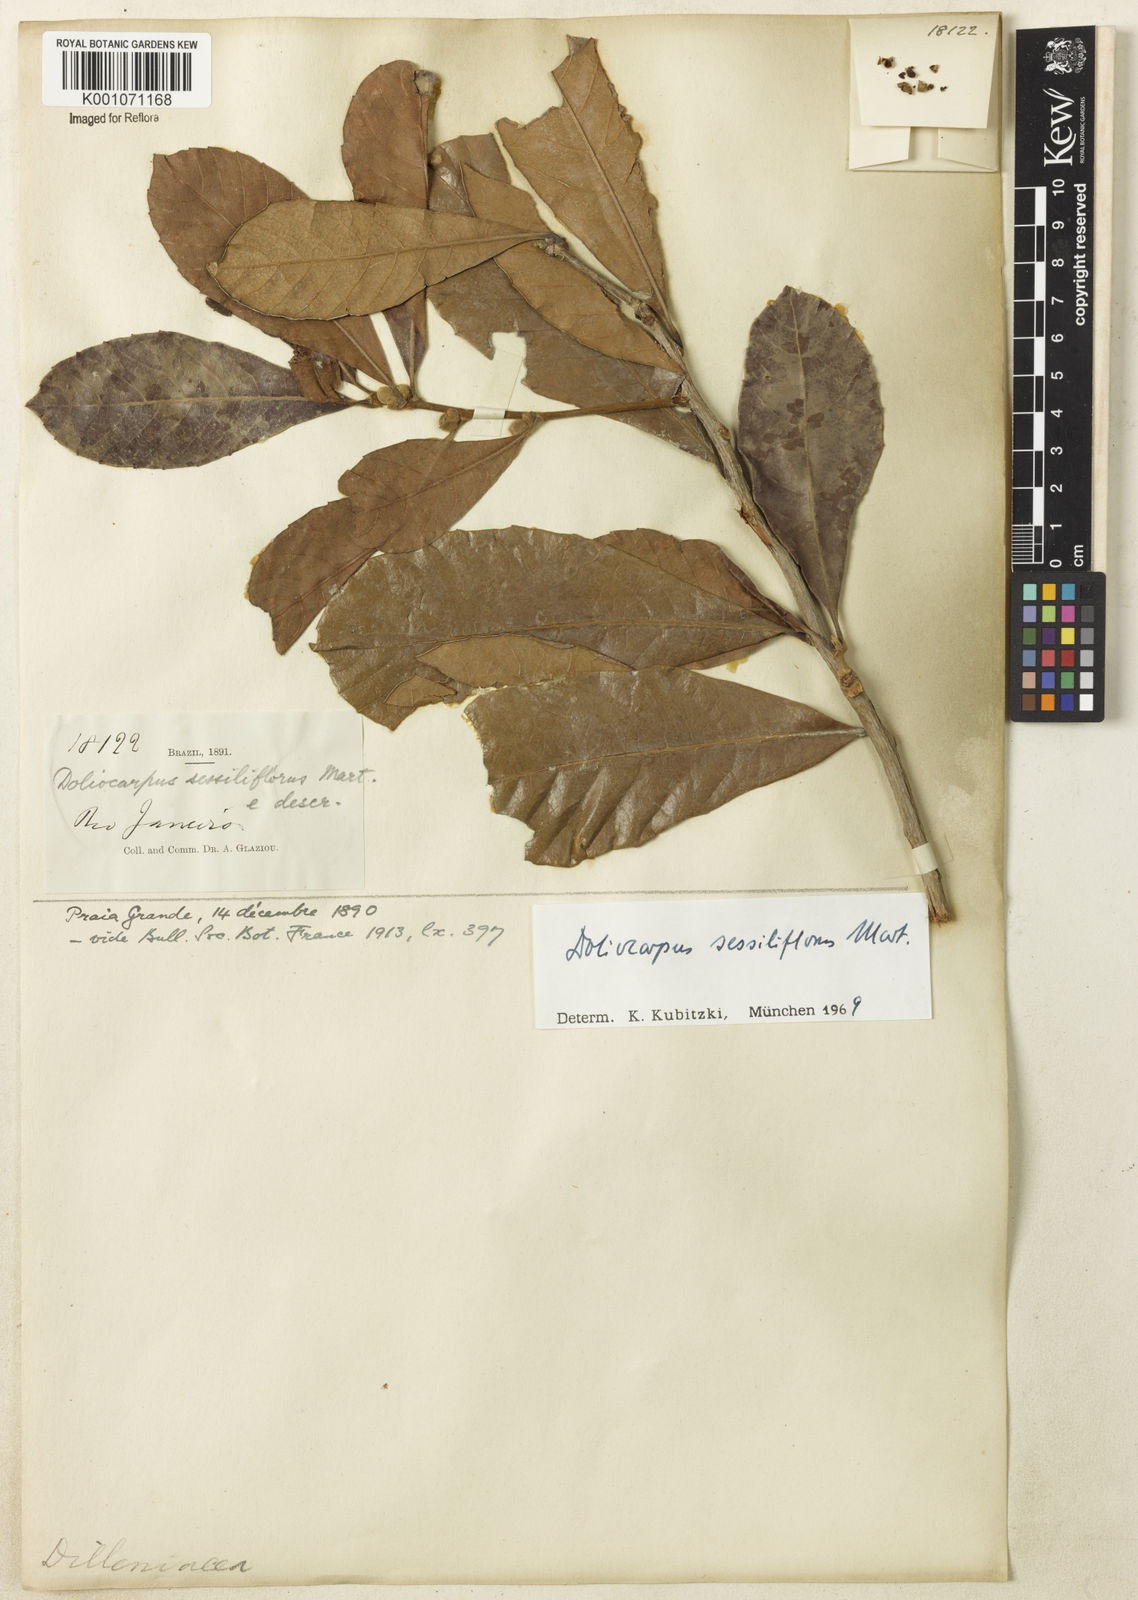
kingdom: Plantae
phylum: Tracheophyta
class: Magnoliopsida
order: Dilleniales
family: Dilleniaceae
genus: Doliocarpus
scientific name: Doliocarpus sessiliflorus
